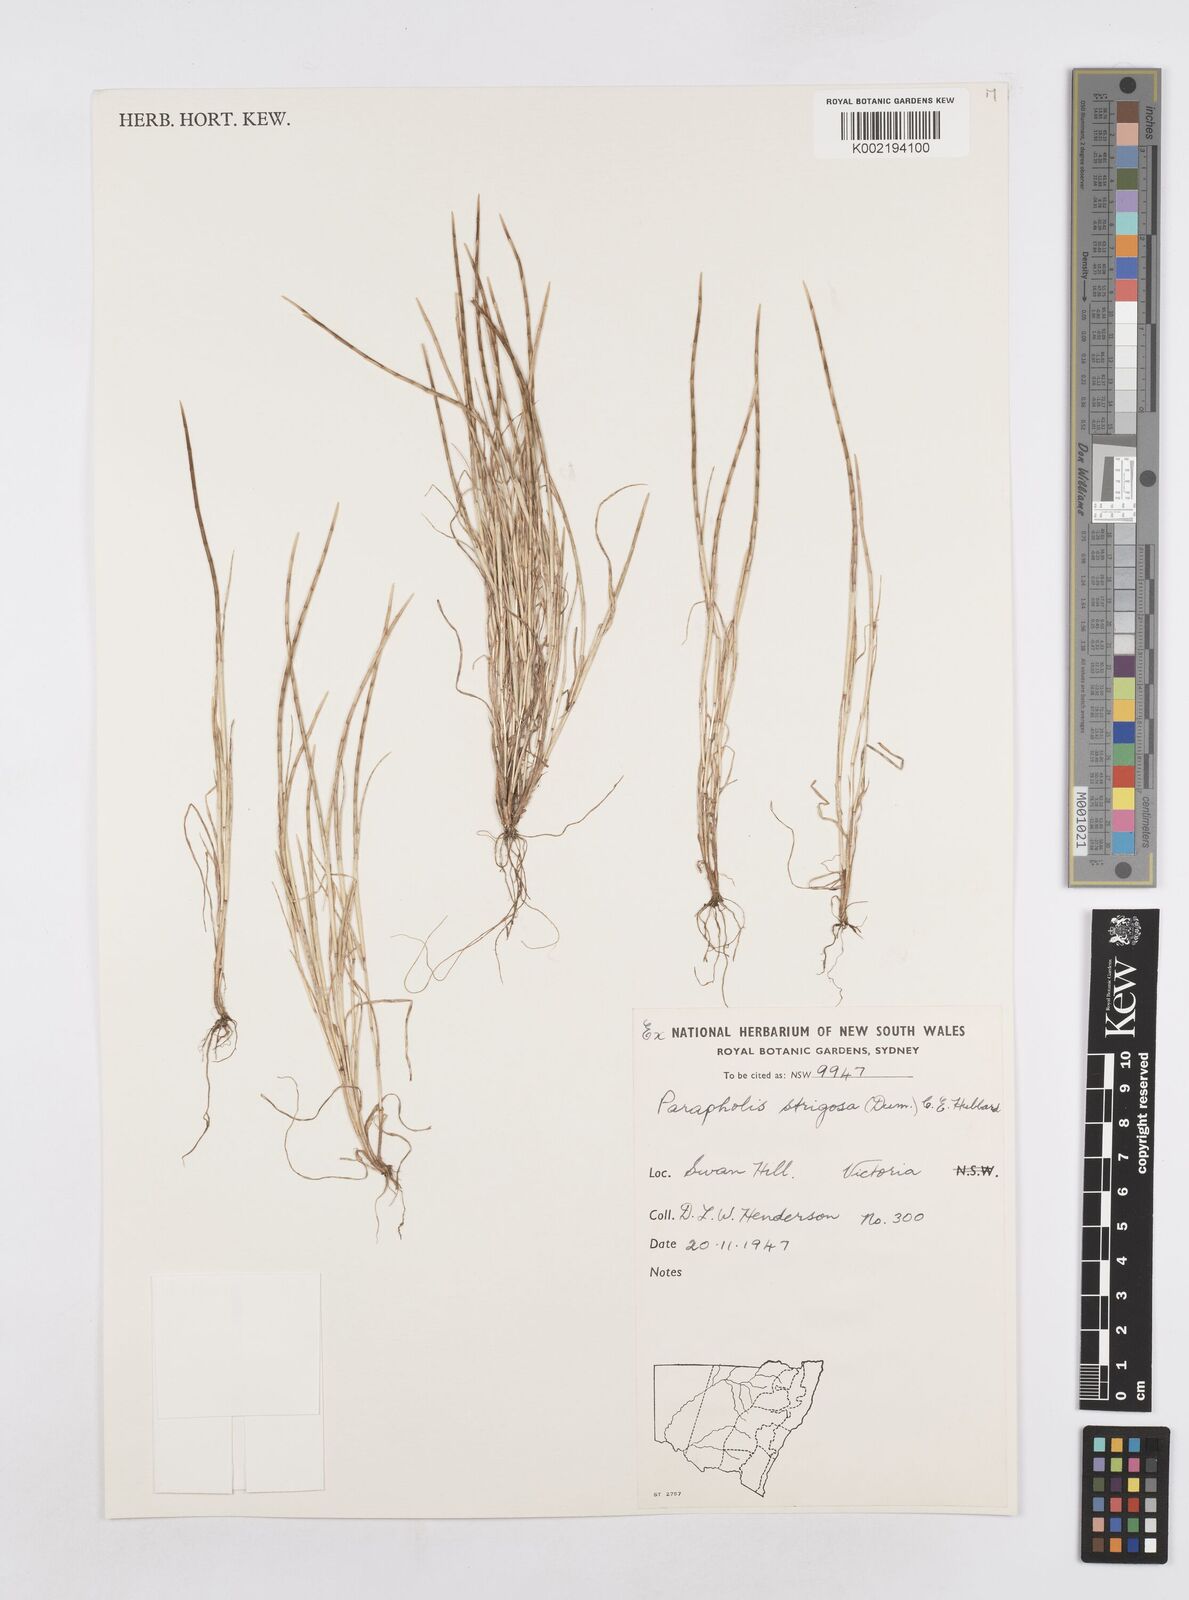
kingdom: Plantae
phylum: Tracheophyta
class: Liliopsida
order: Poales
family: Poaceae
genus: Parapholis
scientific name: Parapholis strigosa
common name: Hard-grass
